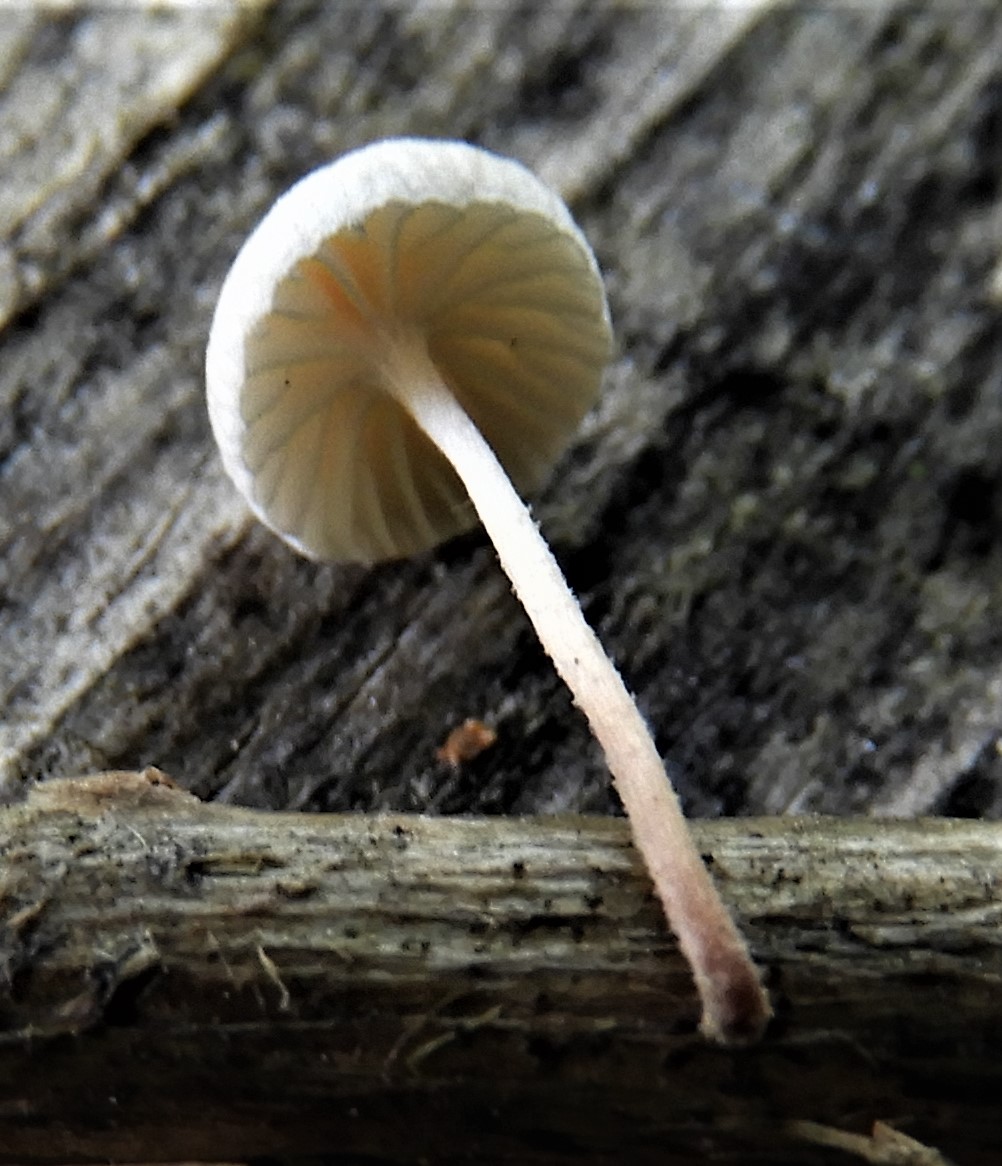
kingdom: Fungi
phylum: Basidiomycota
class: Agaricomycetes
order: Agaricales
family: Omphalotaceae
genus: Marasmiellus
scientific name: Marasmiellus
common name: bruskhat
